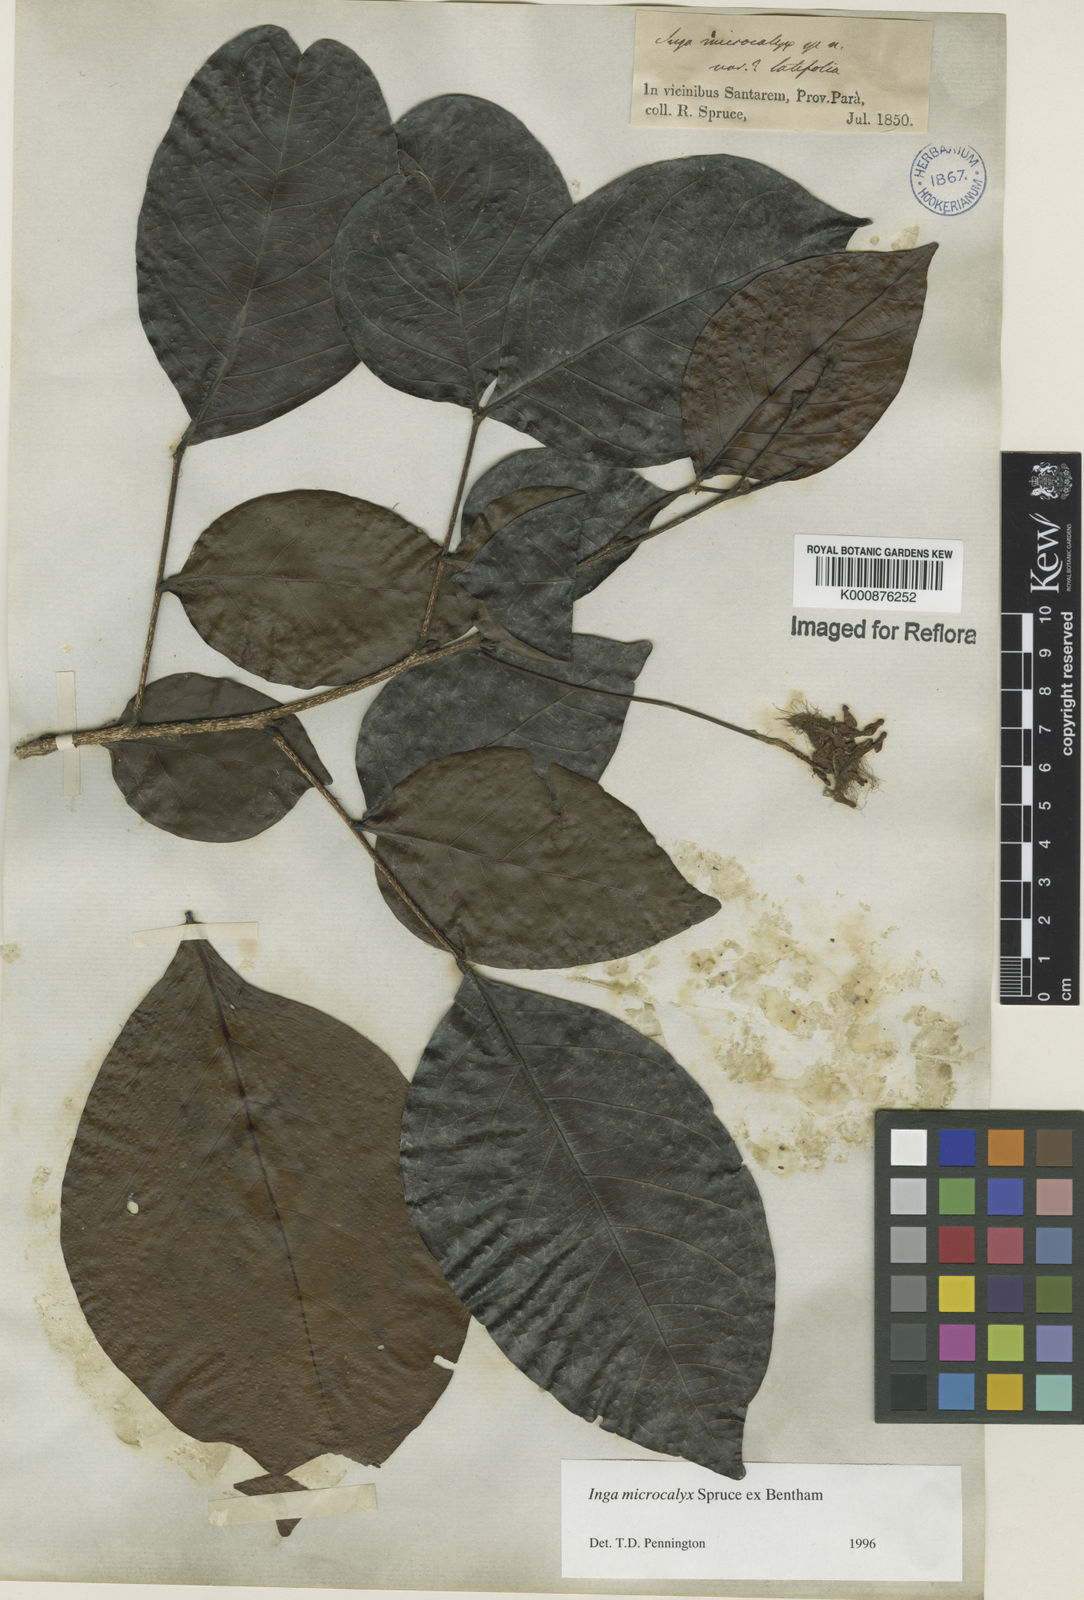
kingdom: Plantae
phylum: Tracheophyta
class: Magnoliopsida
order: Fabales
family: Fabaceae
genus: Inga
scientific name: Inga microcalyx
